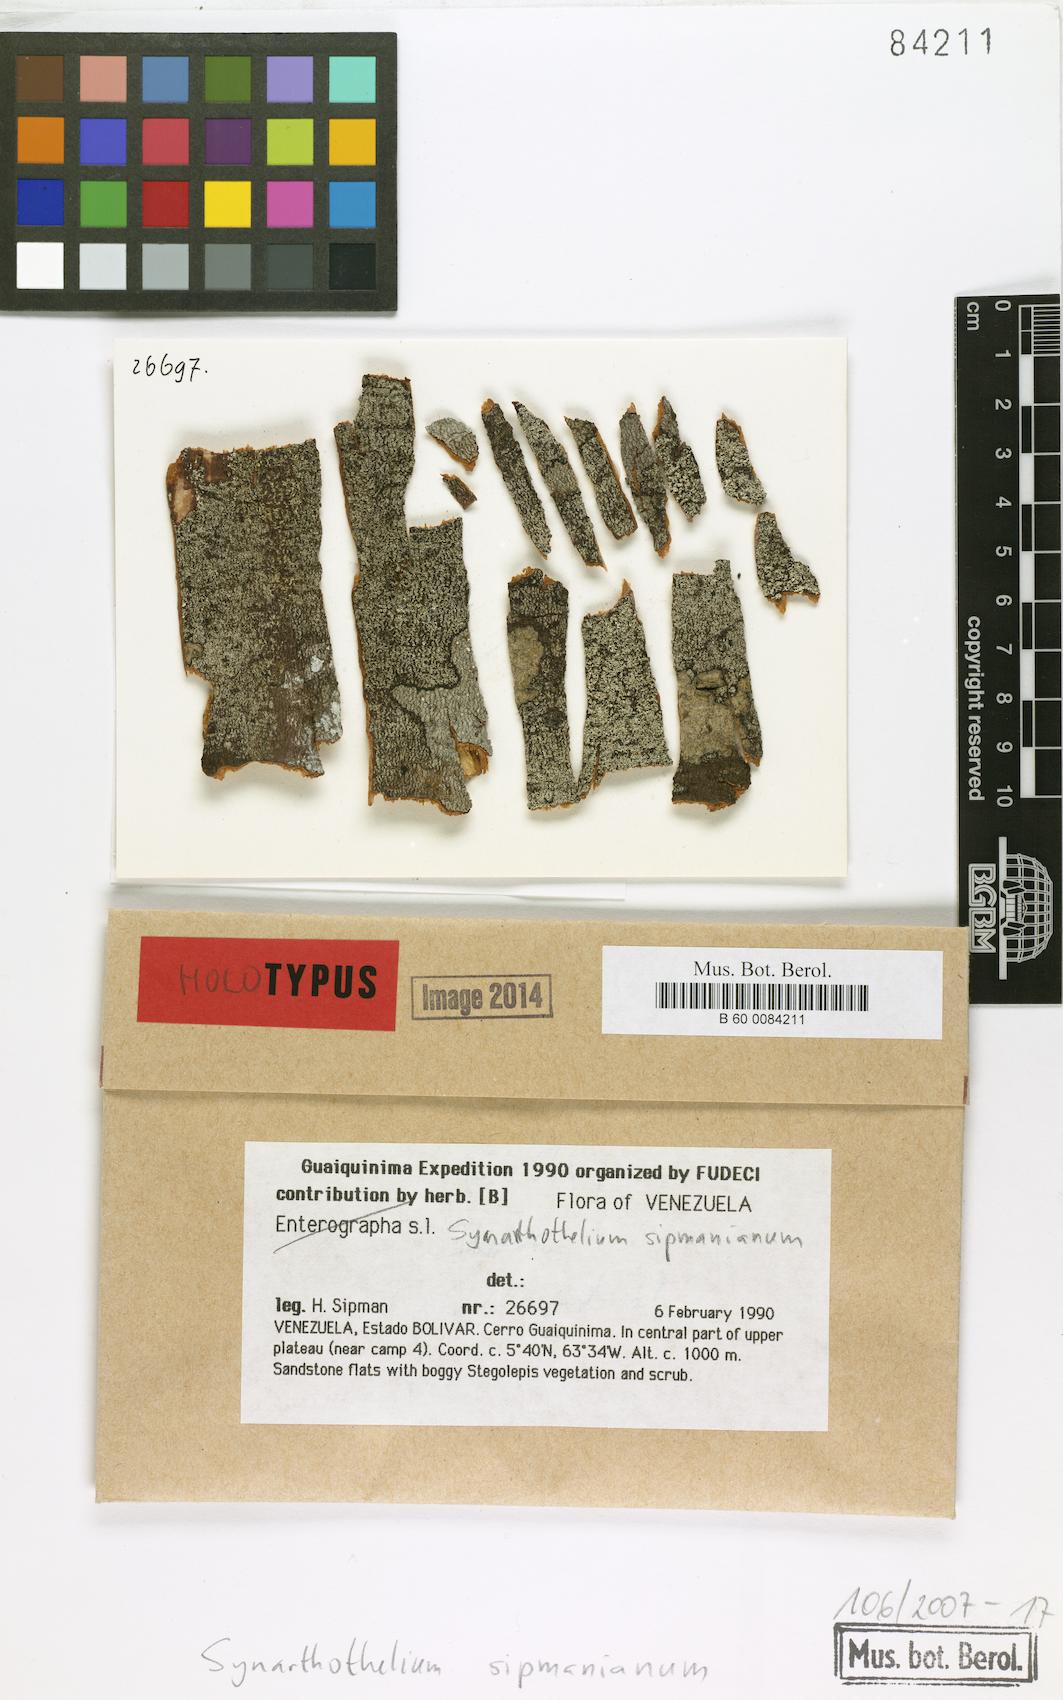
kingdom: Fungi
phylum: Ascomycota
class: Arthoniomycetes
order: Arthoniales
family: Arthoniaceae
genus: Synarthothelium
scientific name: Synarthothelium sipmanianum
